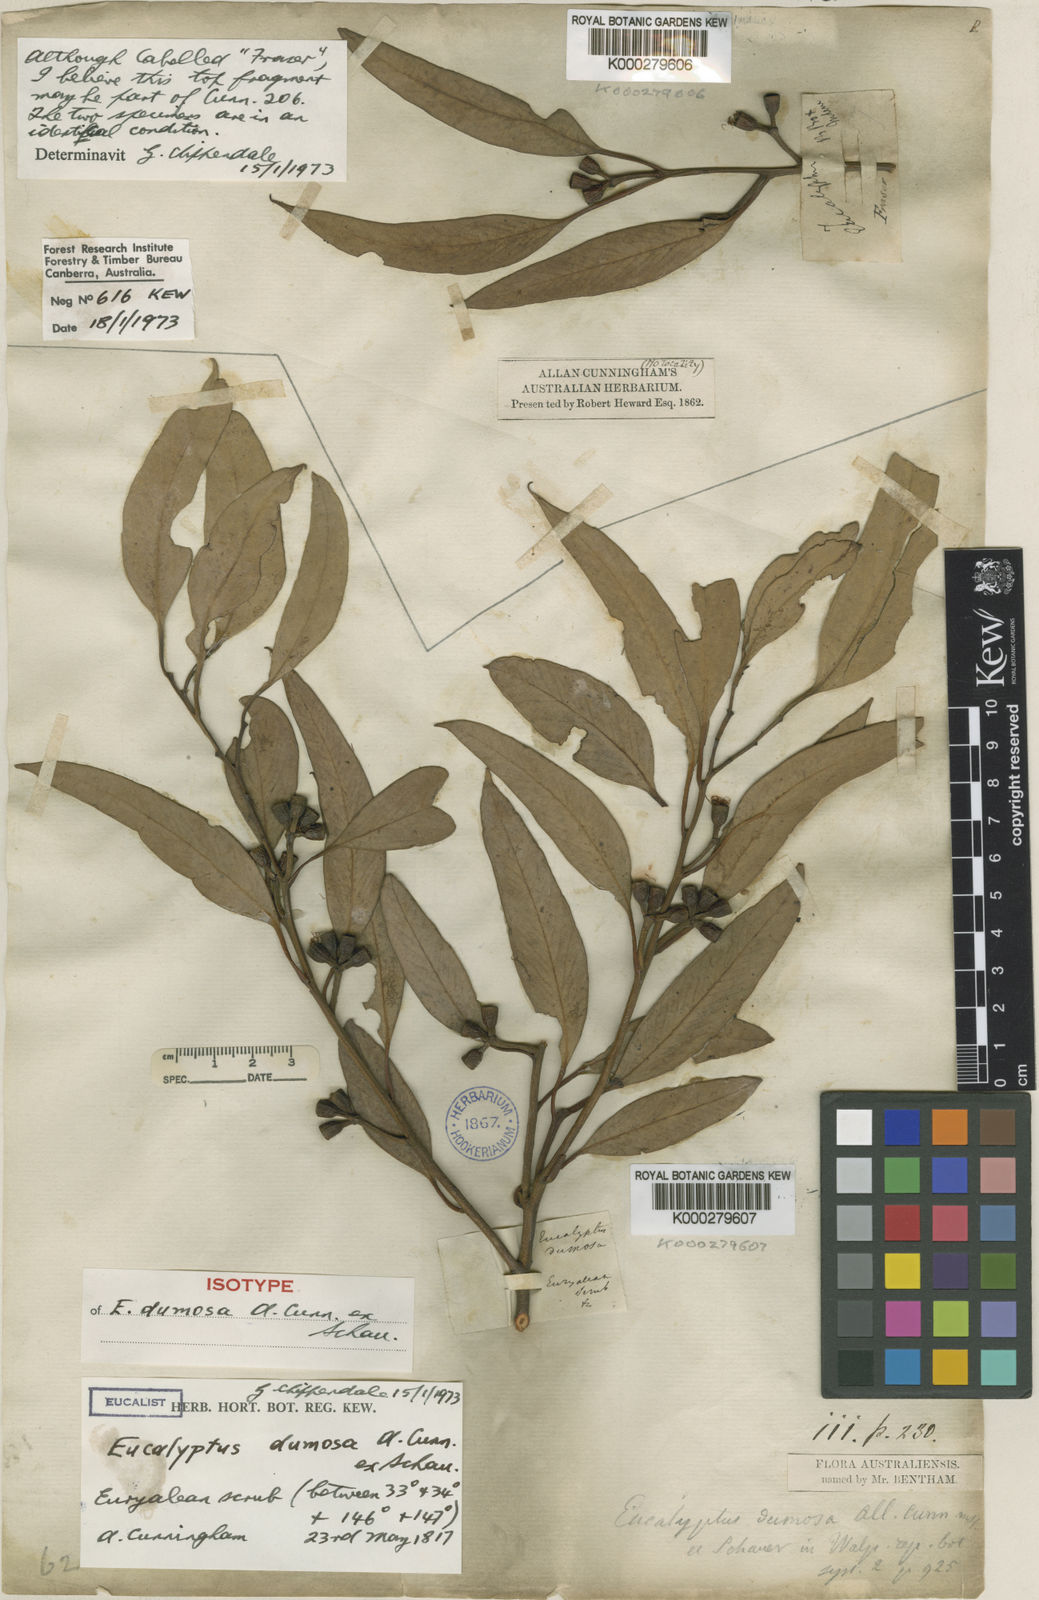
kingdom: Plantae
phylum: Tracheophyta
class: Magnoliopsida
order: Myrtales
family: Myrtaceae
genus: Eucalyptus
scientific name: Eucalyptus
